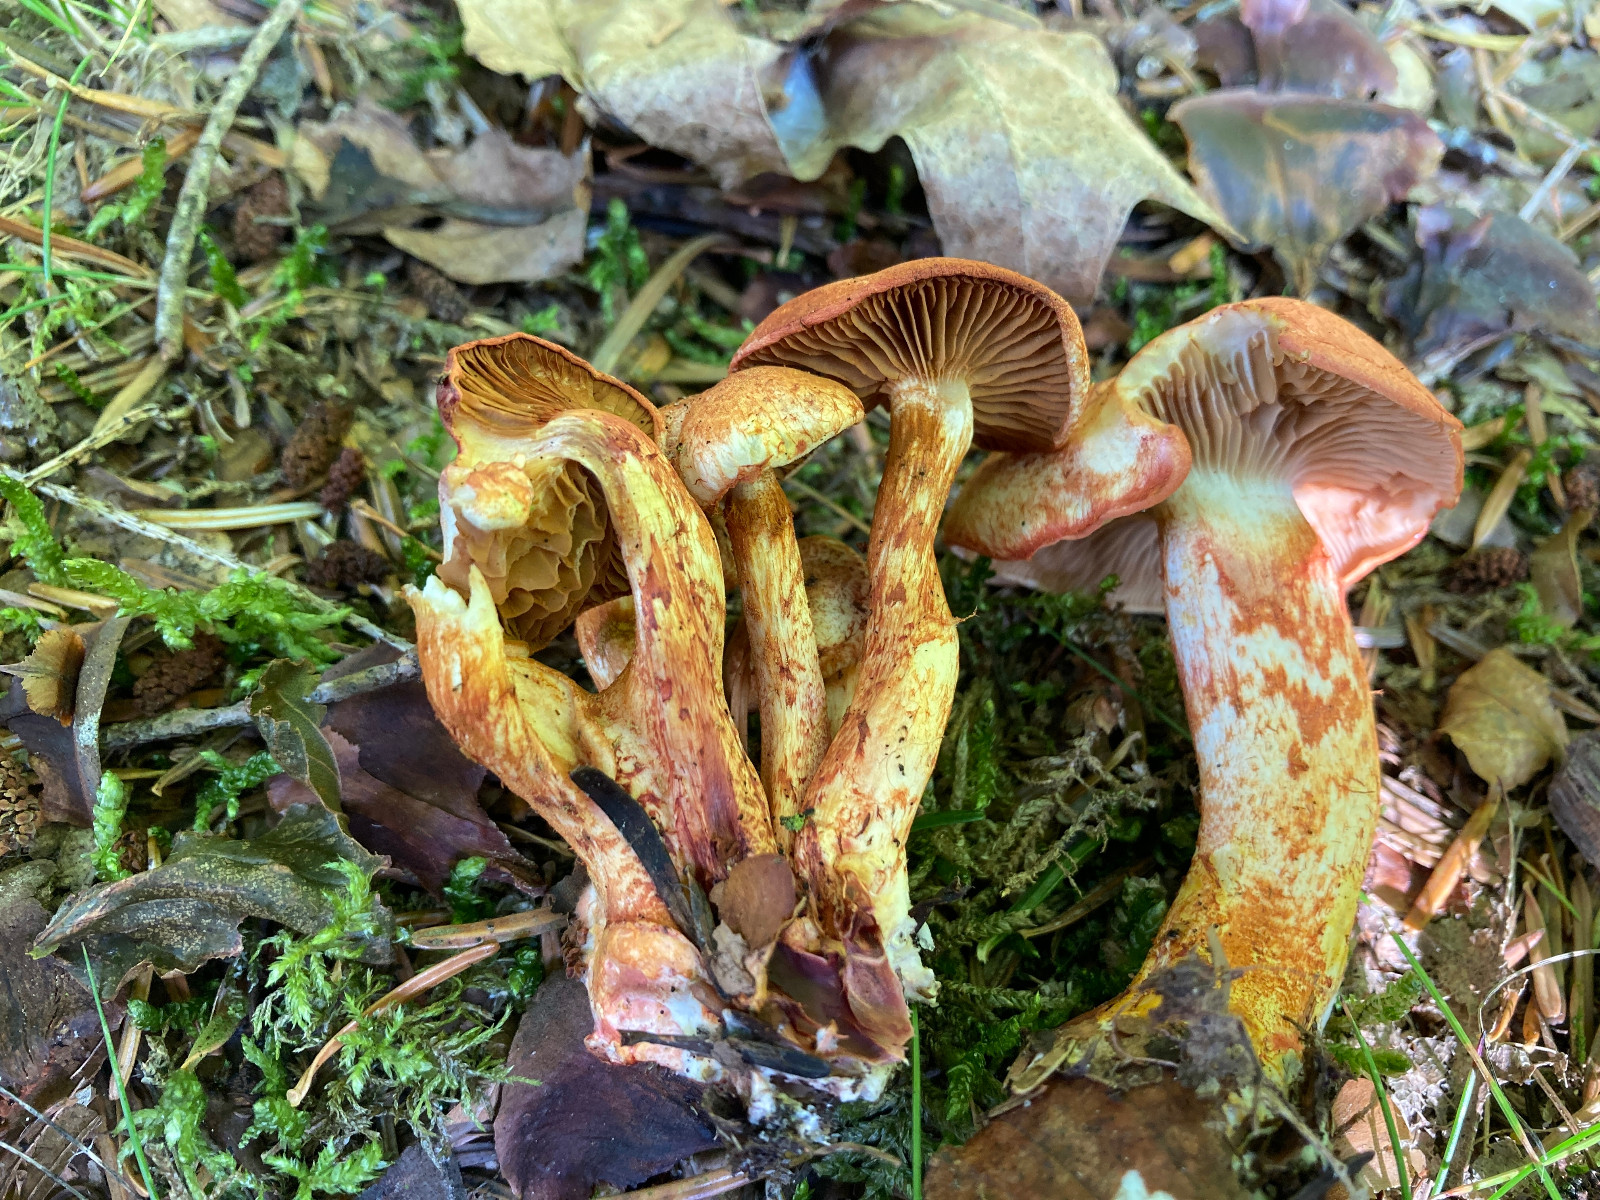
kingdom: Fungi
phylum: Basidiomycota
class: Agaricomycetes
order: Agaricales
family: Cortinariaceae
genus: Cortinarius
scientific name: Cortinarius bolaris
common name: cinnoberskællet slørhat
